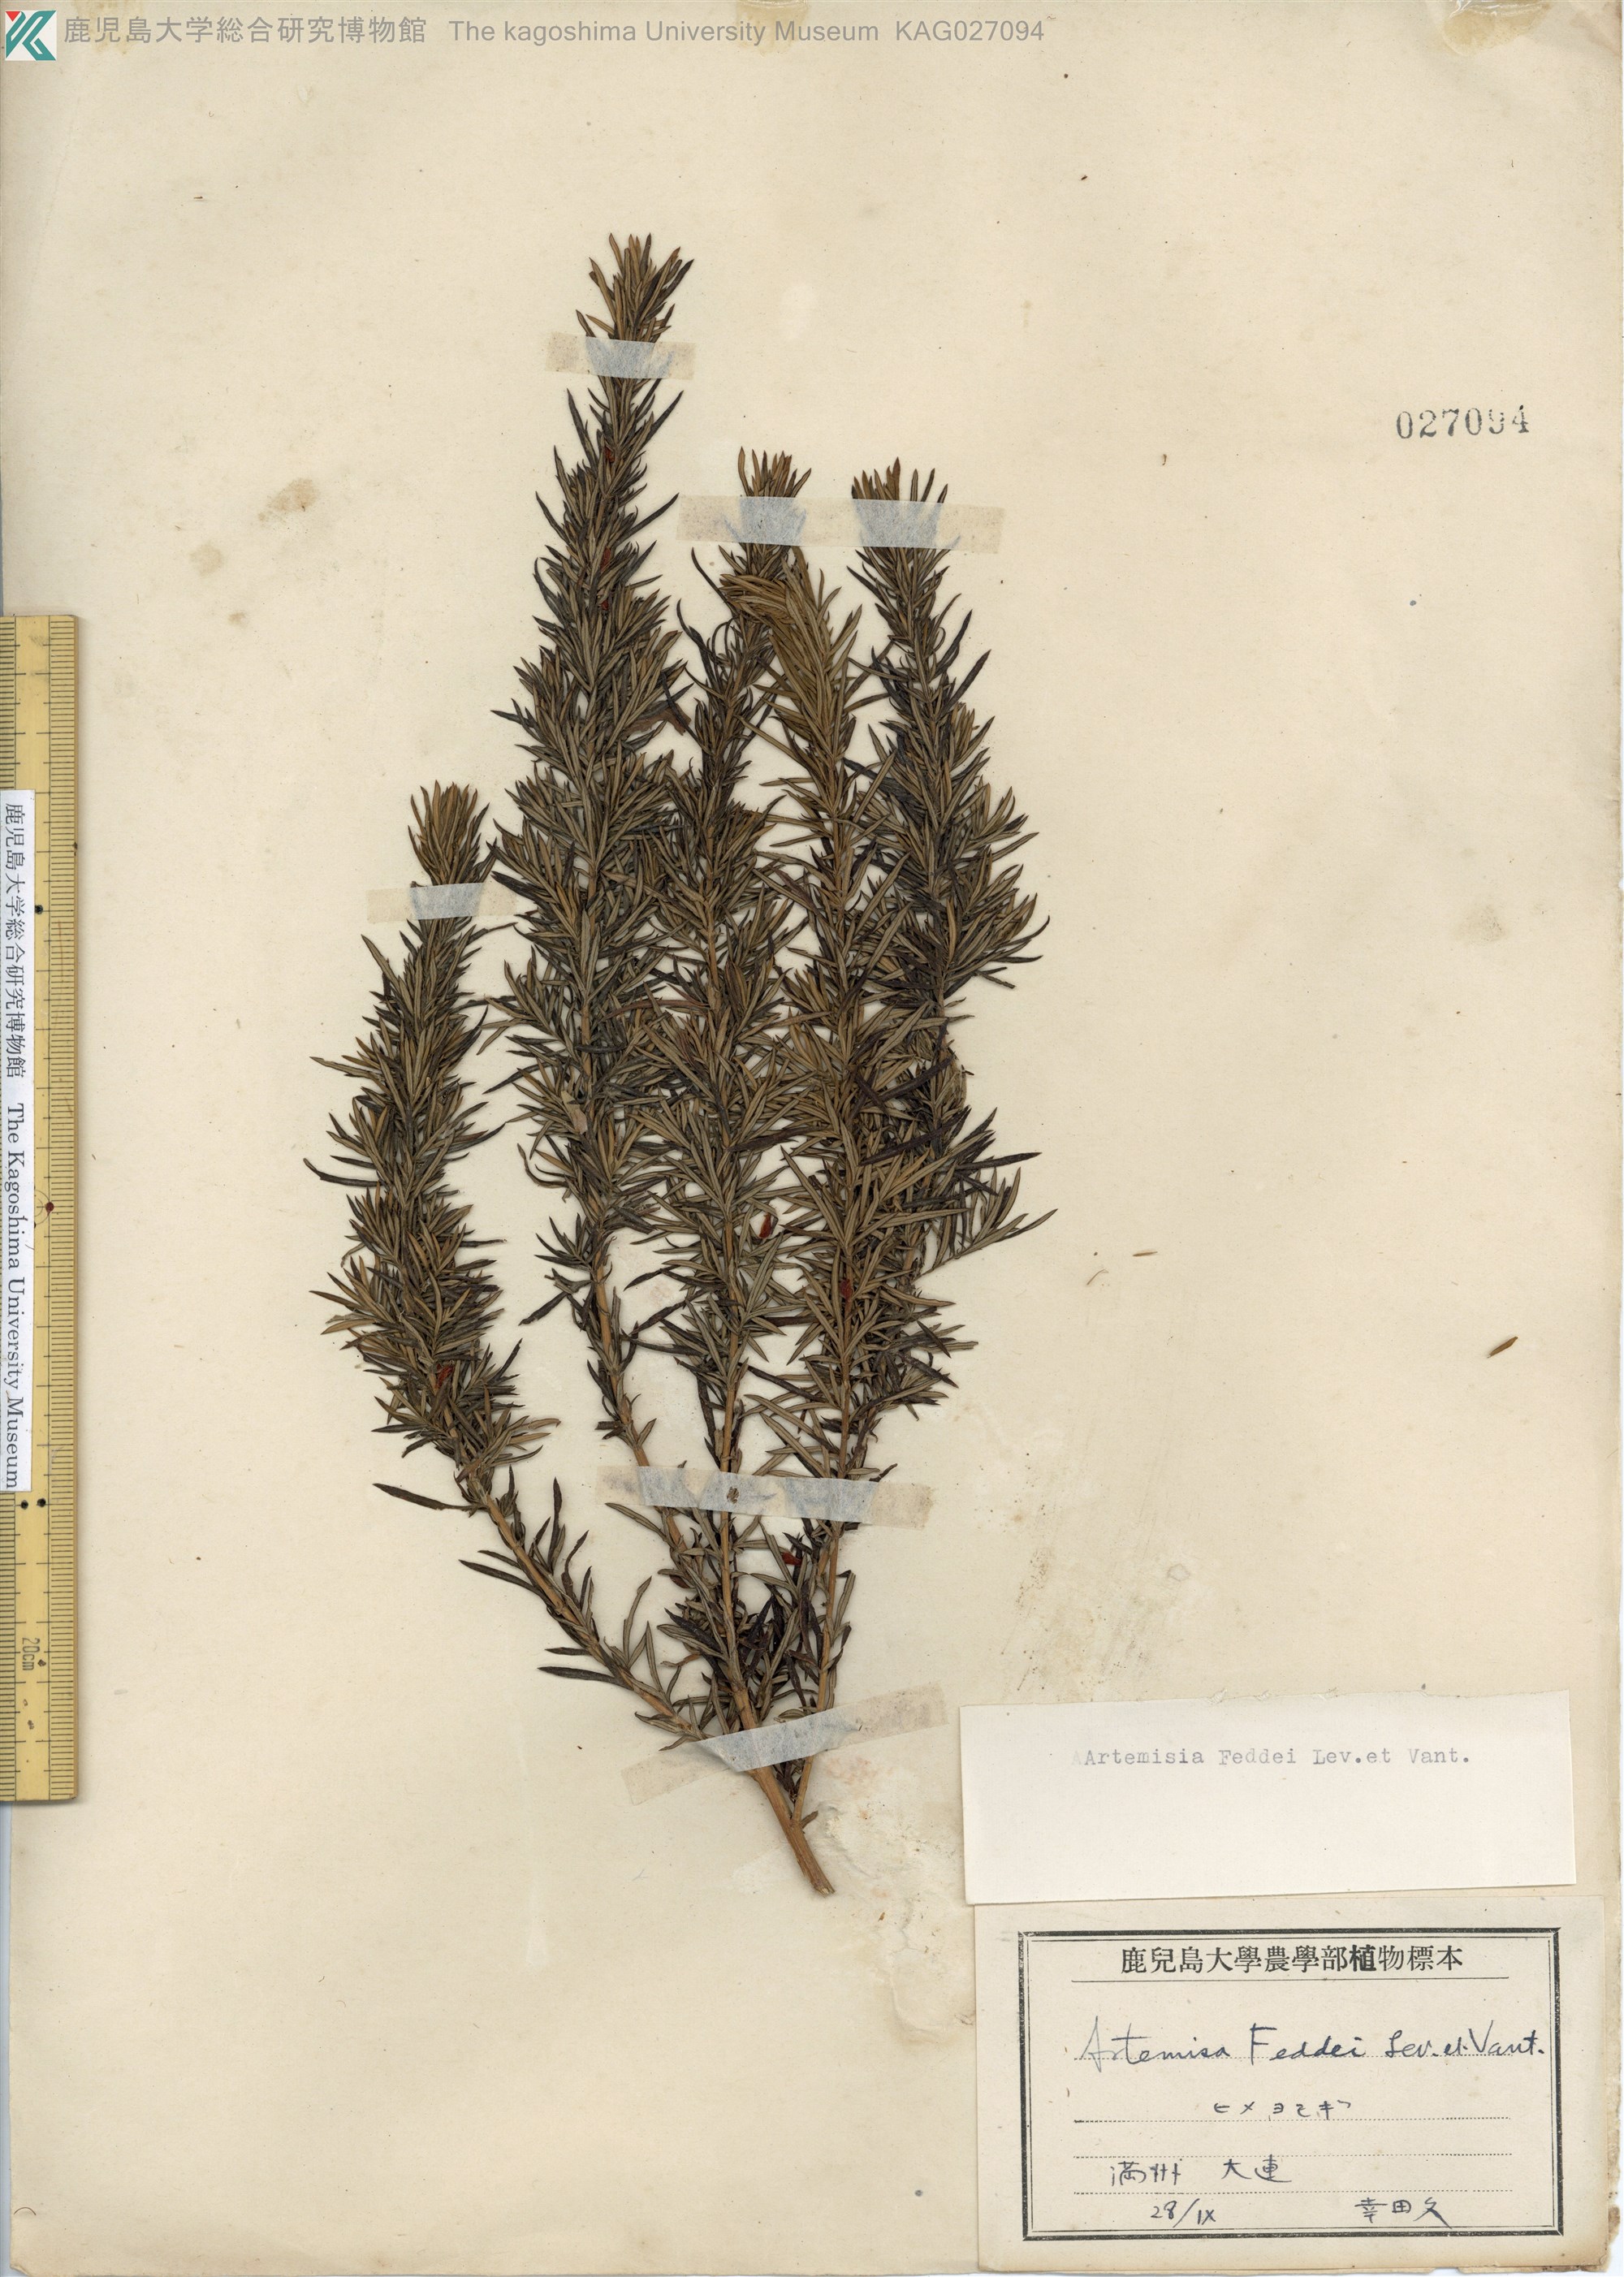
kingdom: Plantae
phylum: Tracheophyta
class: Magnoliopsida
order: Asterales
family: Asteraceae
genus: Artemisia
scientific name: Artemisia lancea
